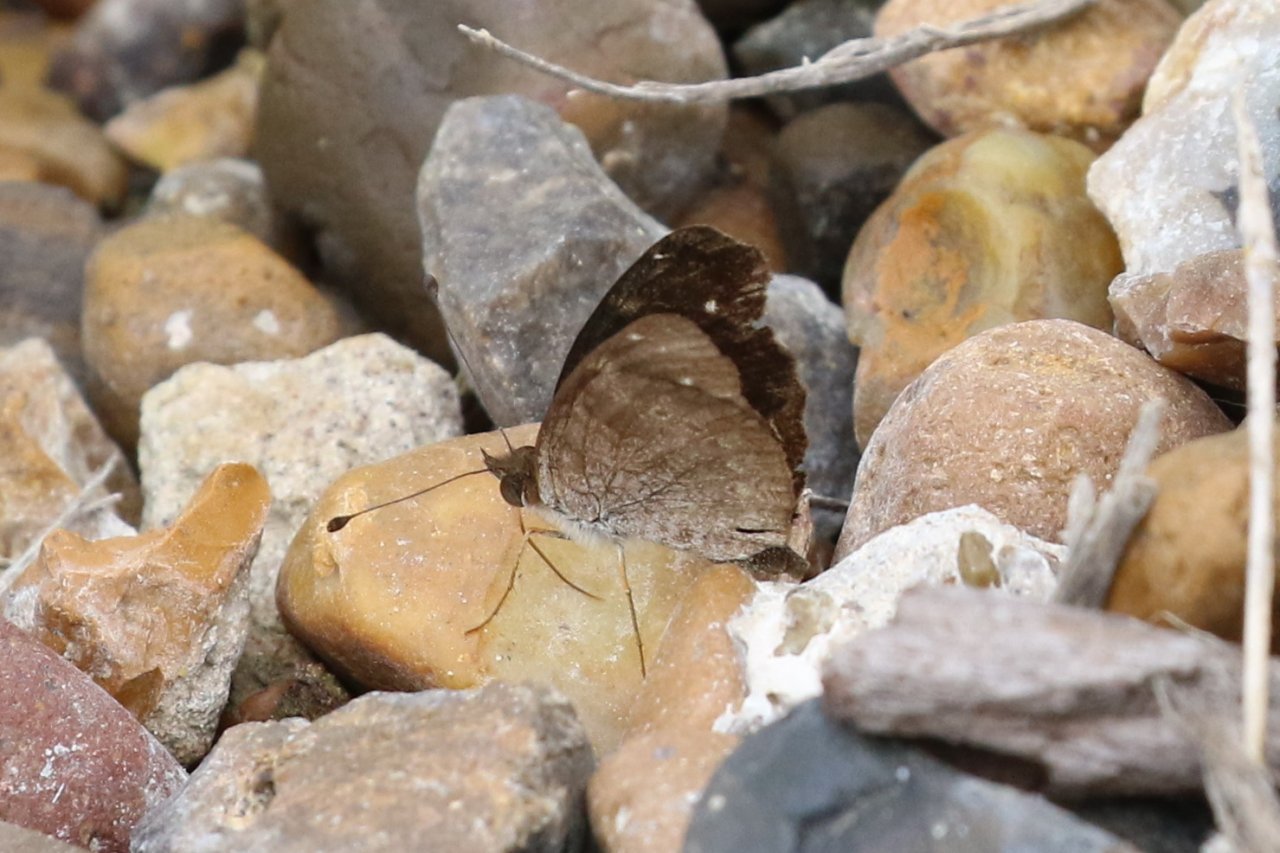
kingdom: Animalia
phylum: Arthropoda
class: Insecta
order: Lepidoptera
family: Nymphalidae
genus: Anthanassa
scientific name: Anthanassa argentea
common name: Chestnut Crescent
